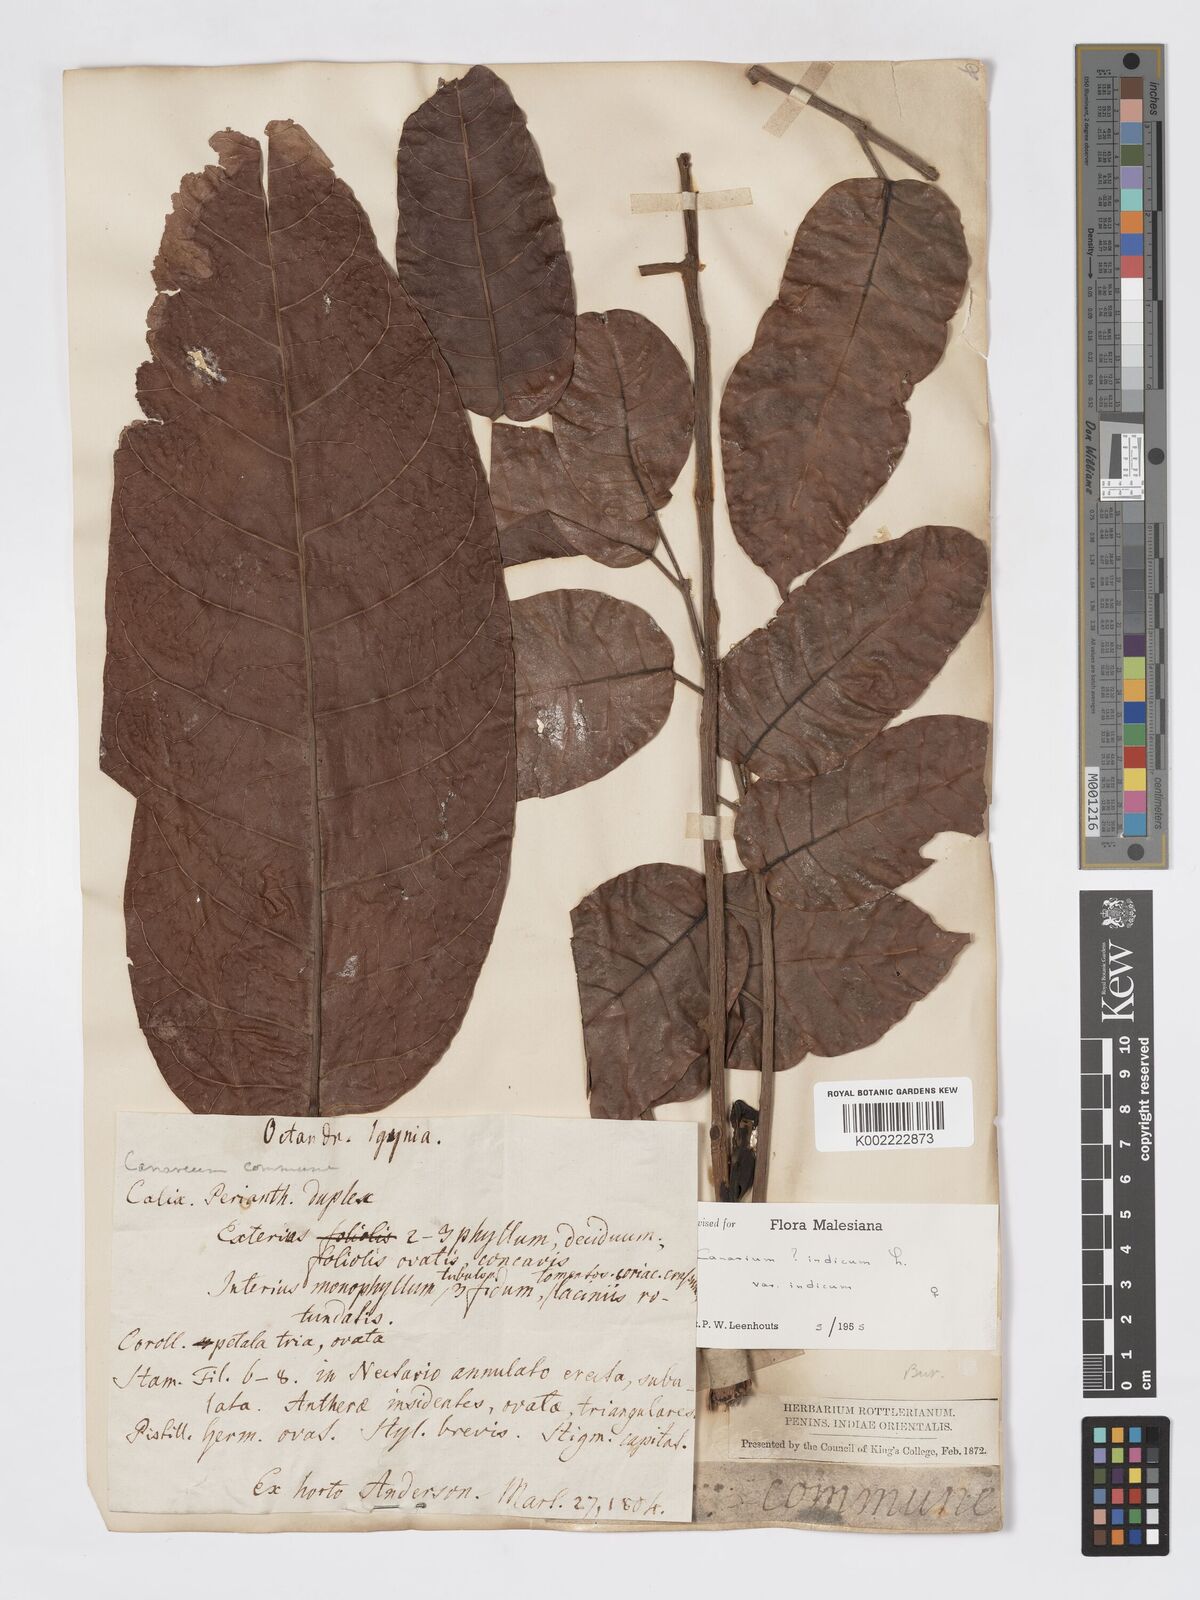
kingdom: Plantae
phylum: Tracheophyta
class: Magnoliopsida
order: Sapindales
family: Burseraceae
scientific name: Burseraceae
